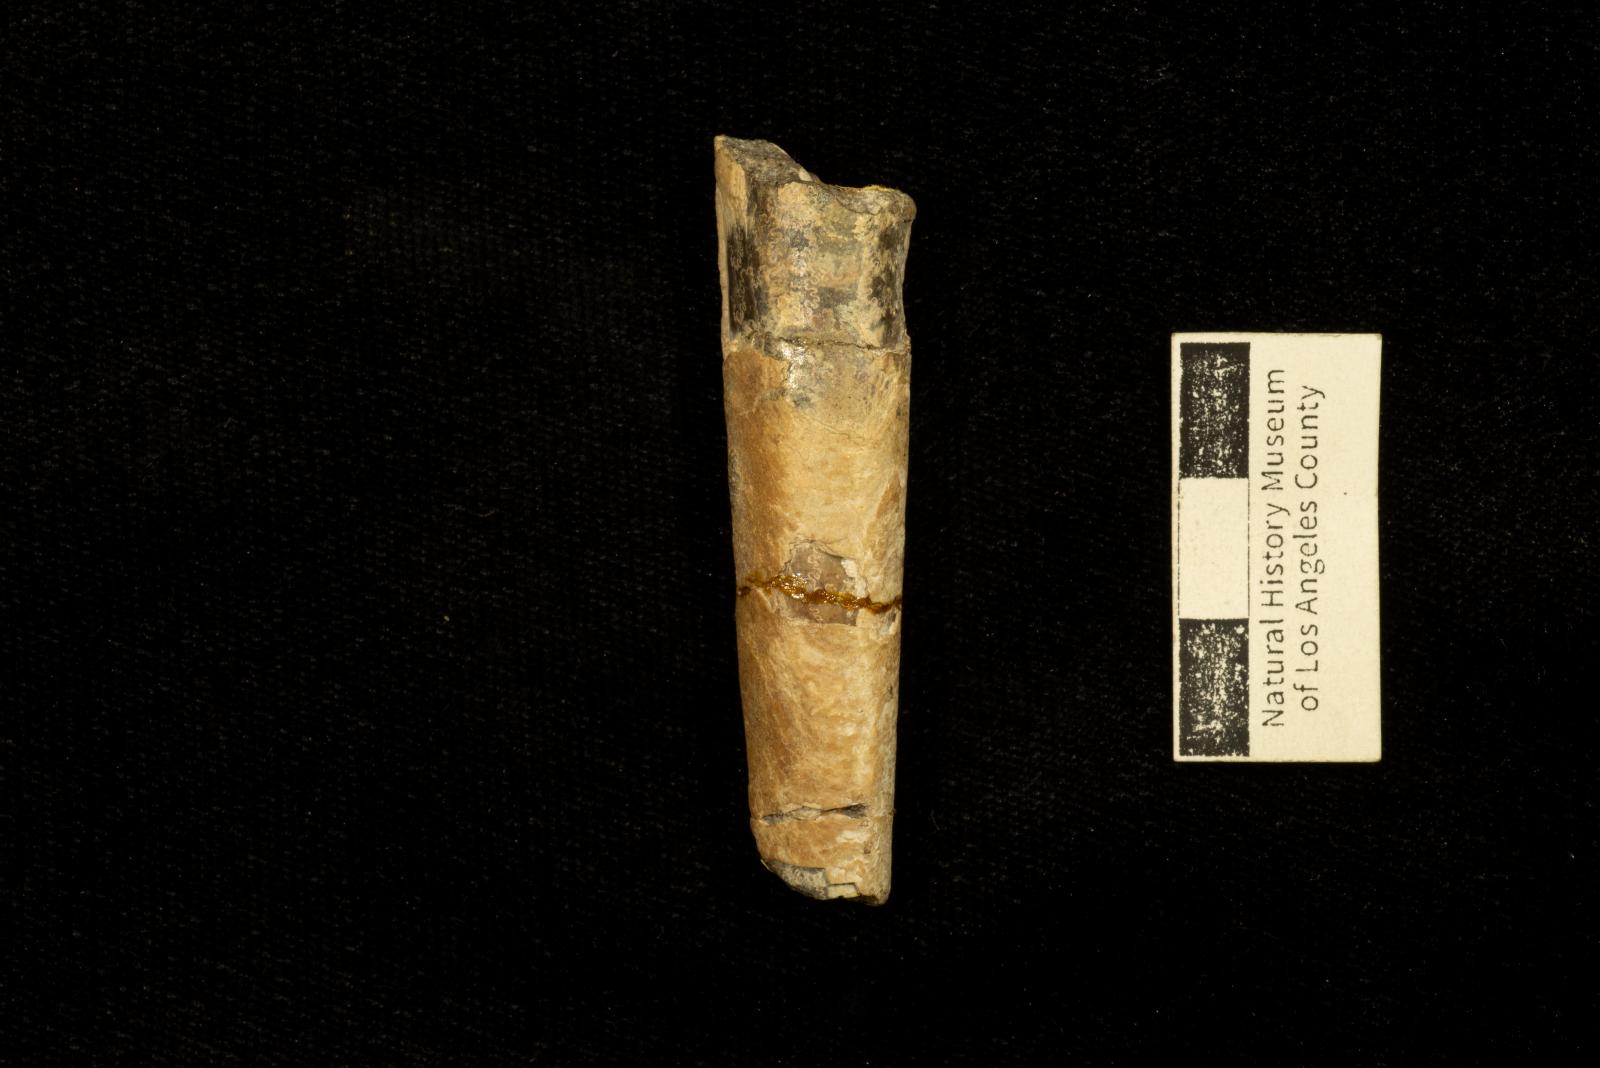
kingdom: Animalia
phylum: Mollusca
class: Cephalopoda
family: Baculitidae
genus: Baculites
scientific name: Baculites inornatus
